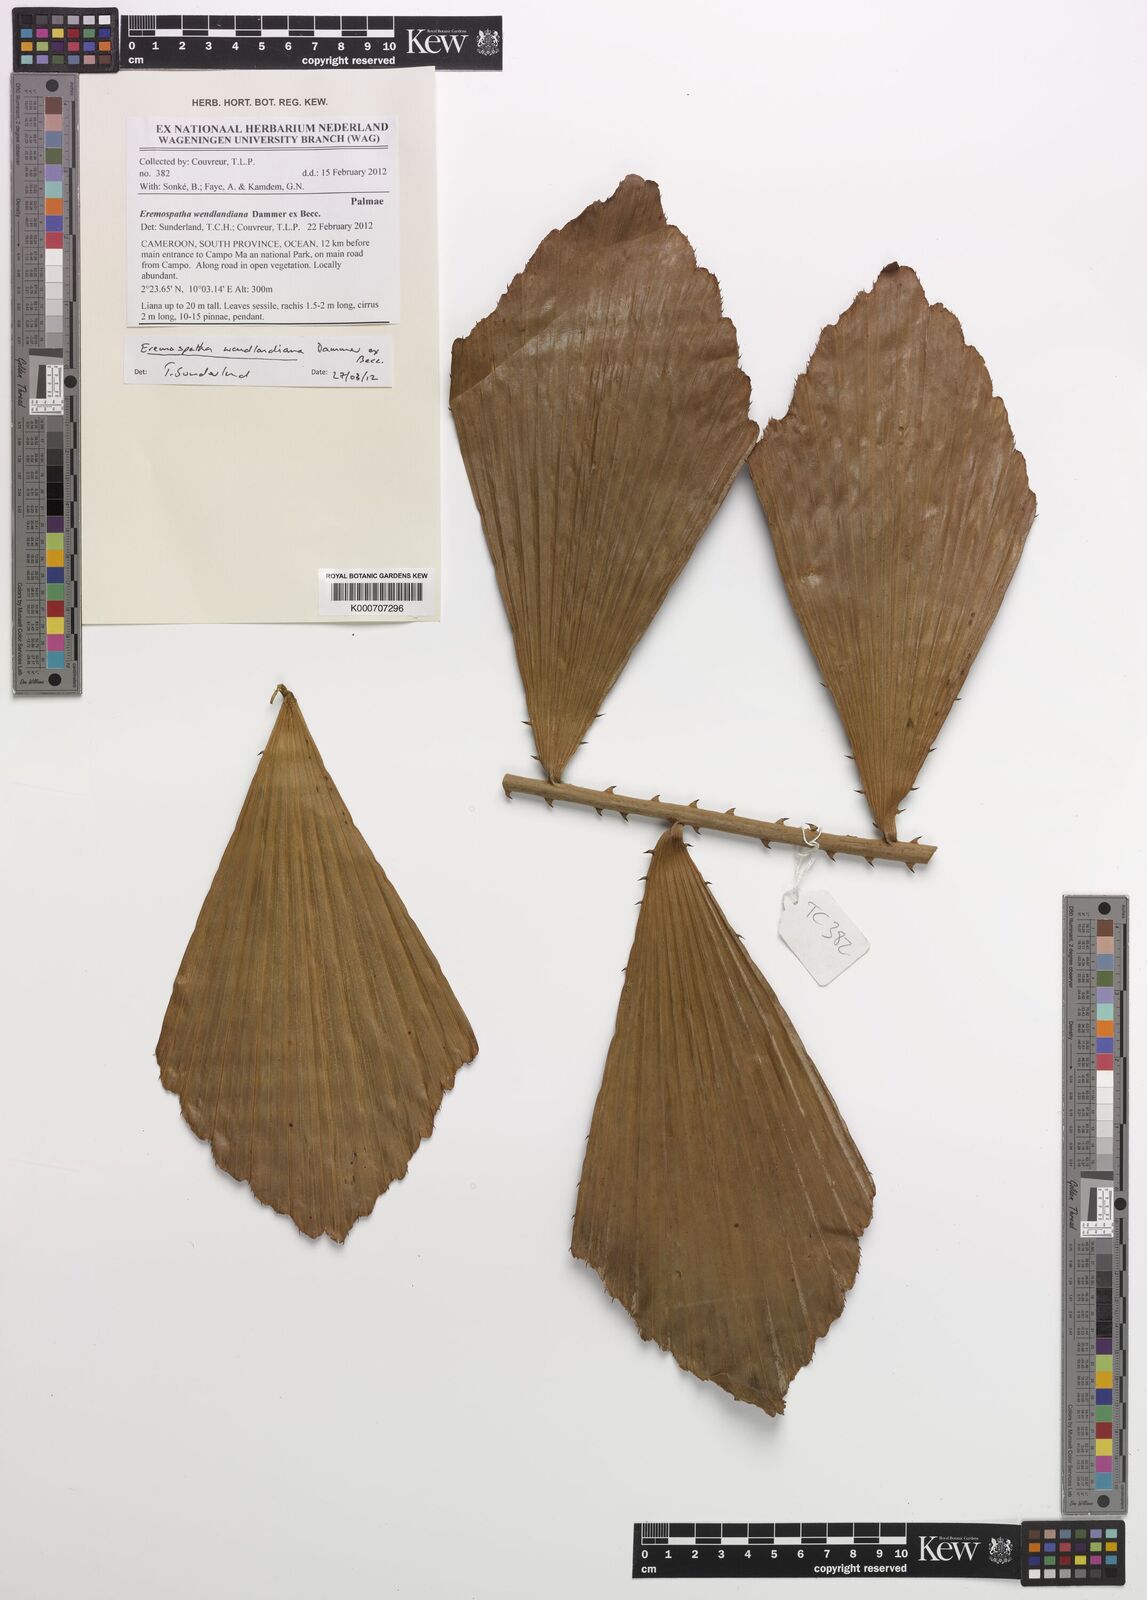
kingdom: Plantae
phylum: Tracheophyta
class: Liliopsida
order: Arecales
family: Arecaceae
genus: Eremospatha
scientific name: Eremospatha wendlandiana
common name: Rattan
